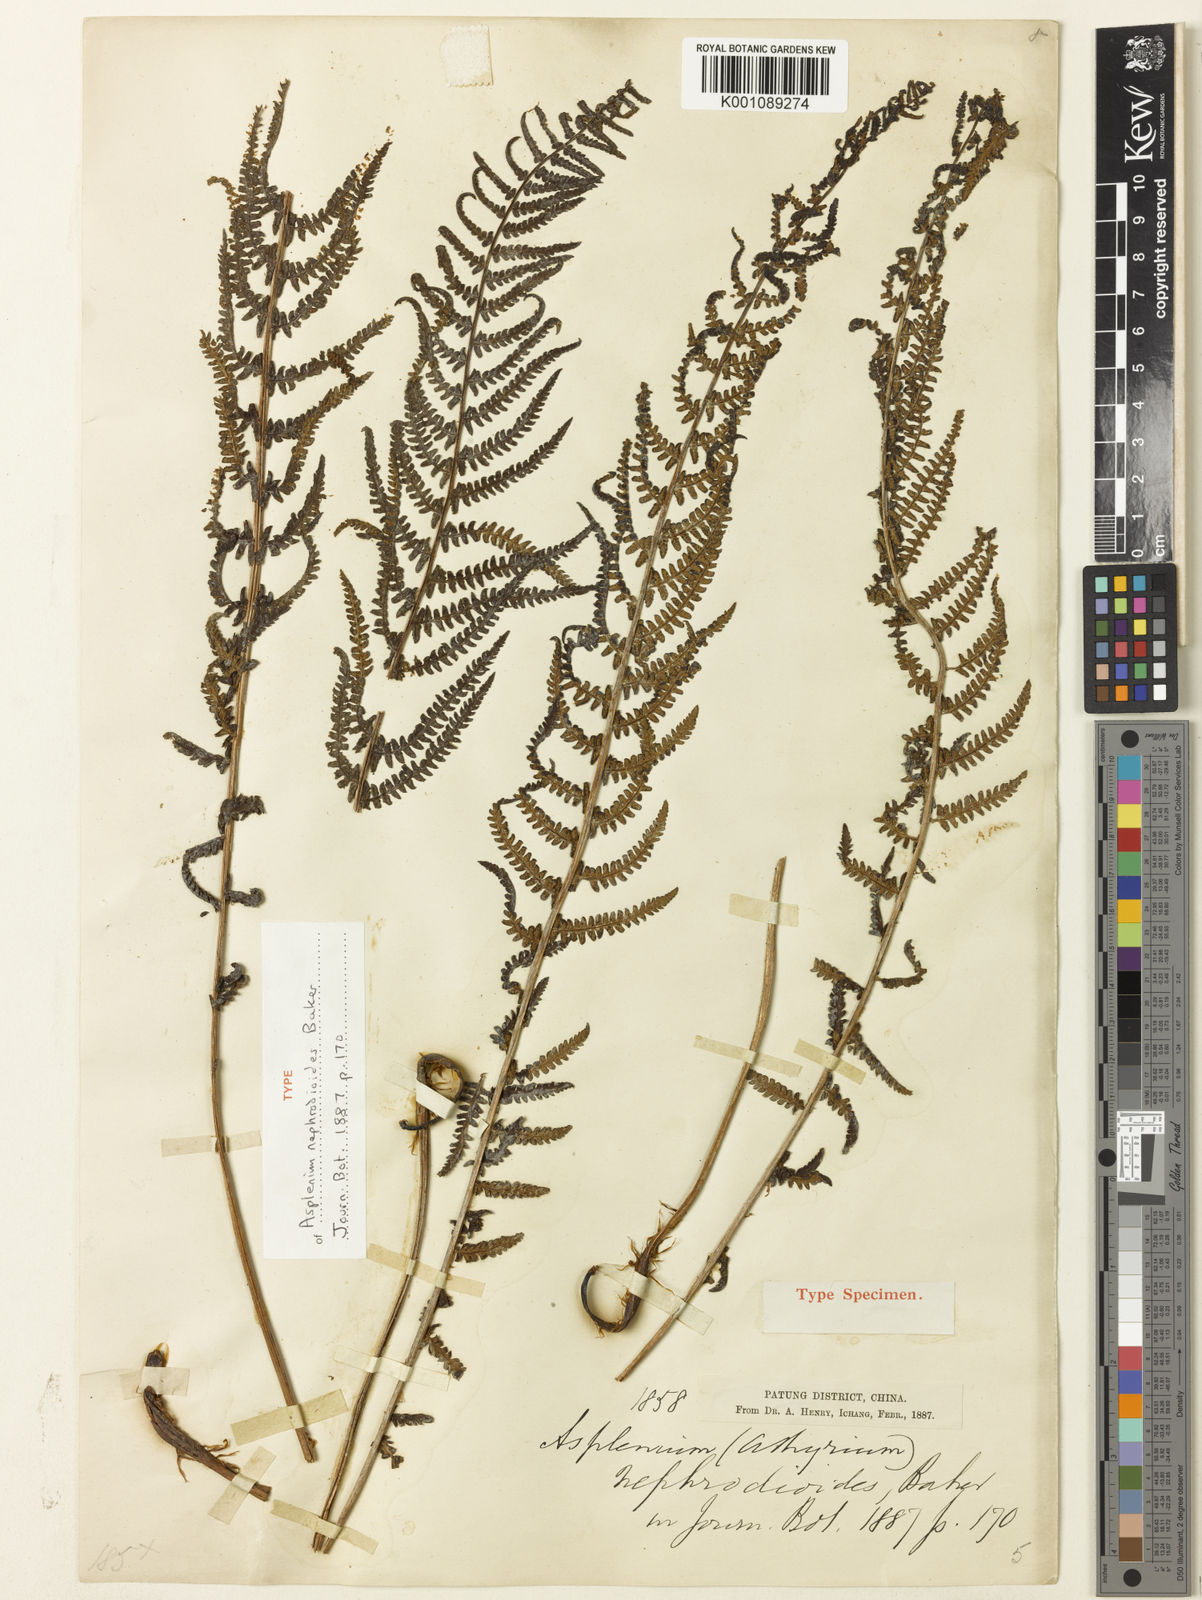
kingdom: Plantae
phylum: Tracheophyta
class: Polypodiopsida
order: Polypodiales
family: Athyriaceae
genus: Athyrium
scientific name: Athyrium nephrodioides
